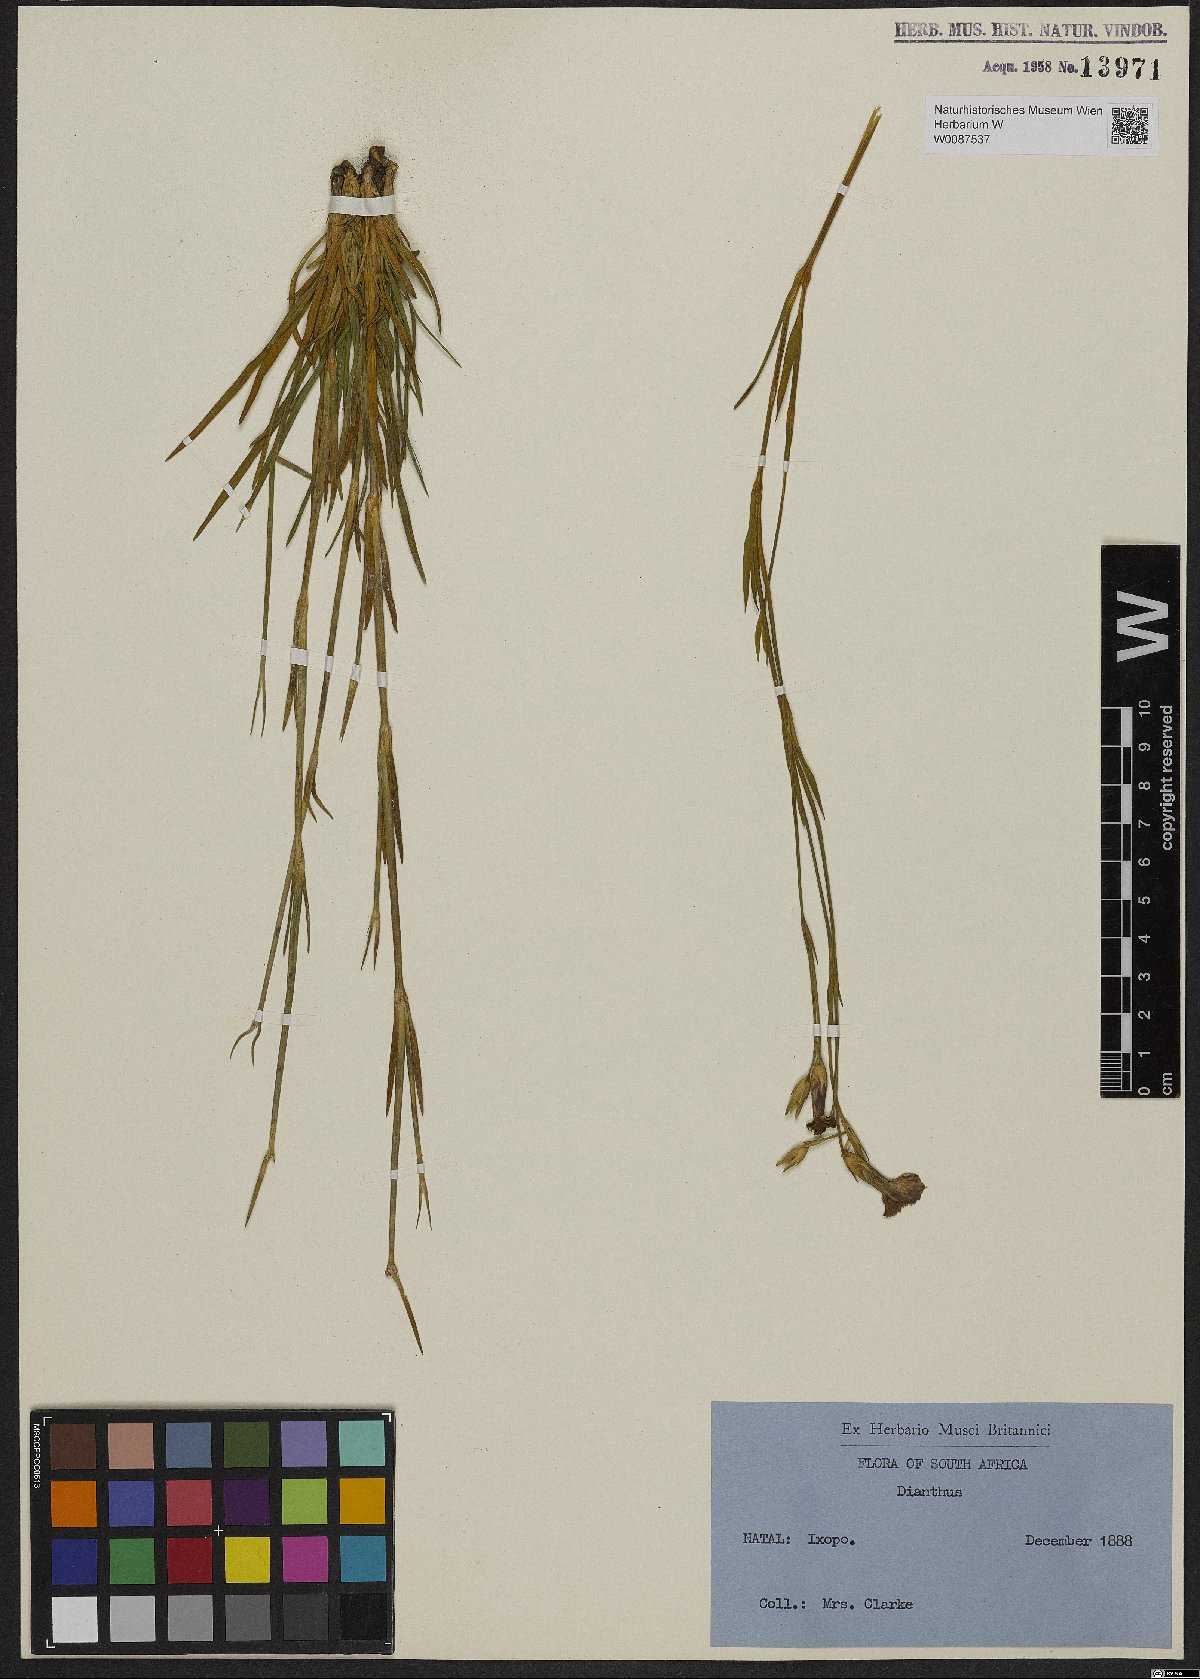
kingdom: Plantae
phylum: Tracheophyta
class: Magnoliopsida
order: Caryophyllales
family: Caryophyllaceae
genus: Dianthus
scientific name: Dianthus
